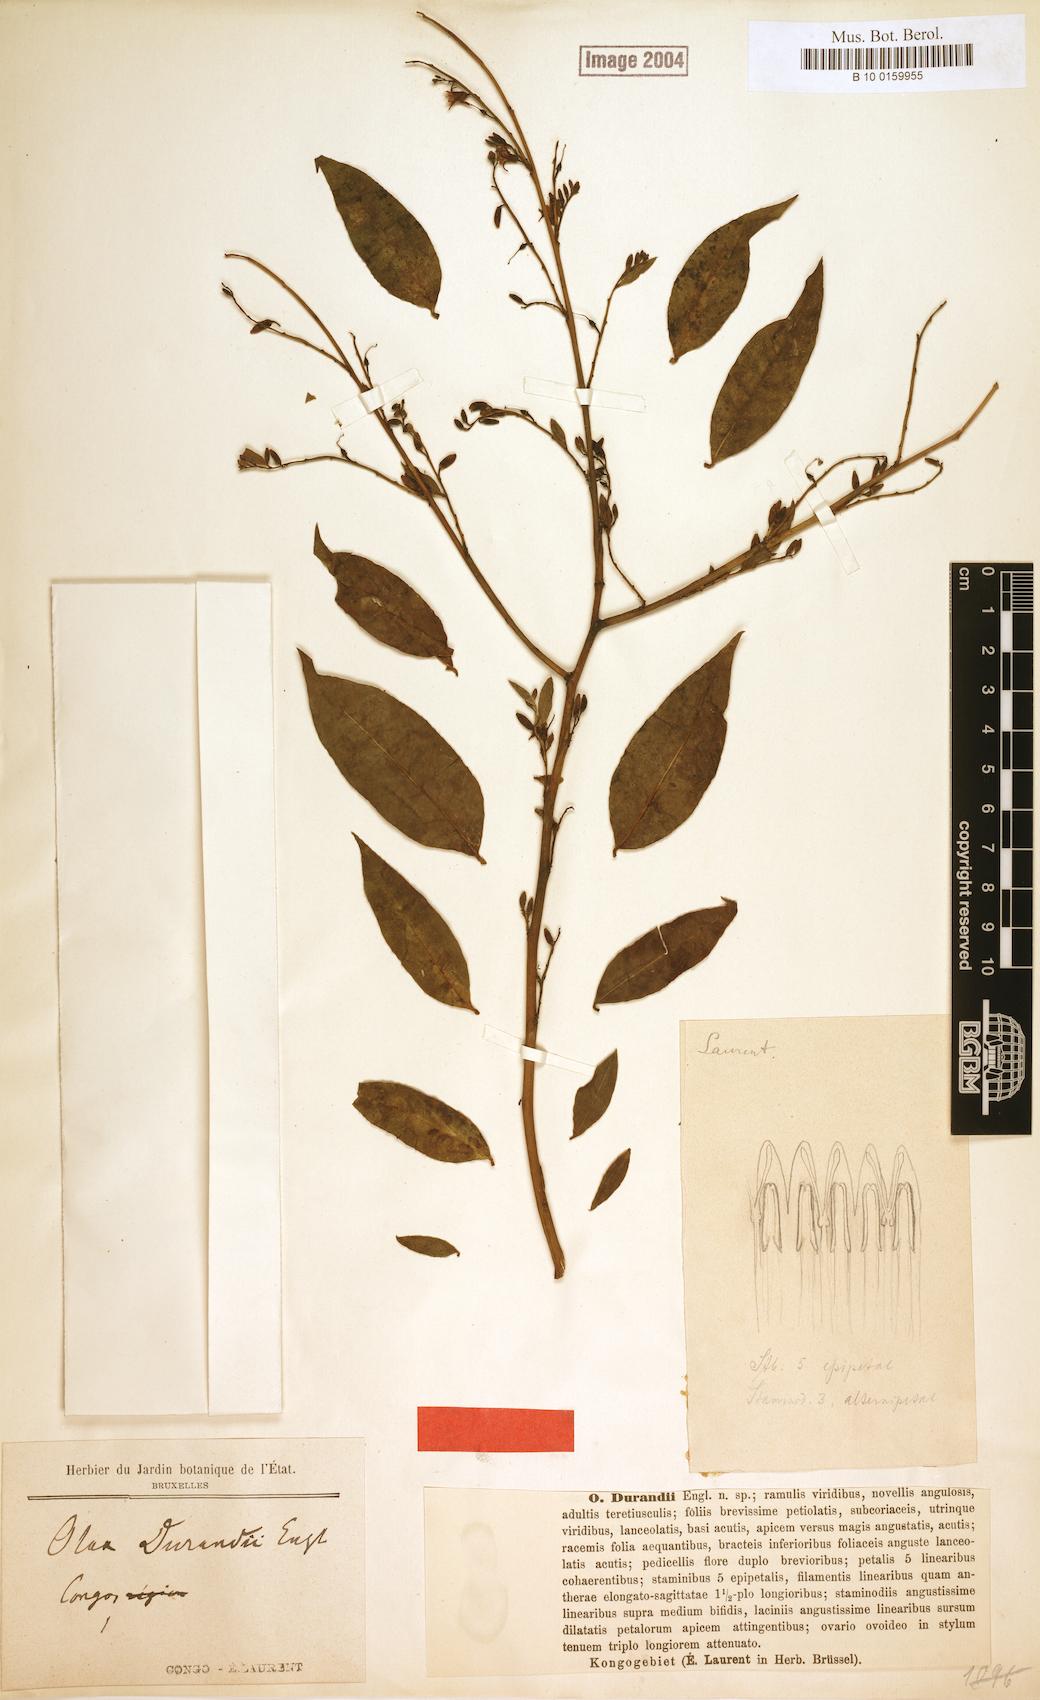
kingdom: Plantae
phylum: Tracheophyta
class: Magnoliopsida
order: Santalales
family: Olacaceae
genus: Olax
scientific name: Olax subscorpioidea
